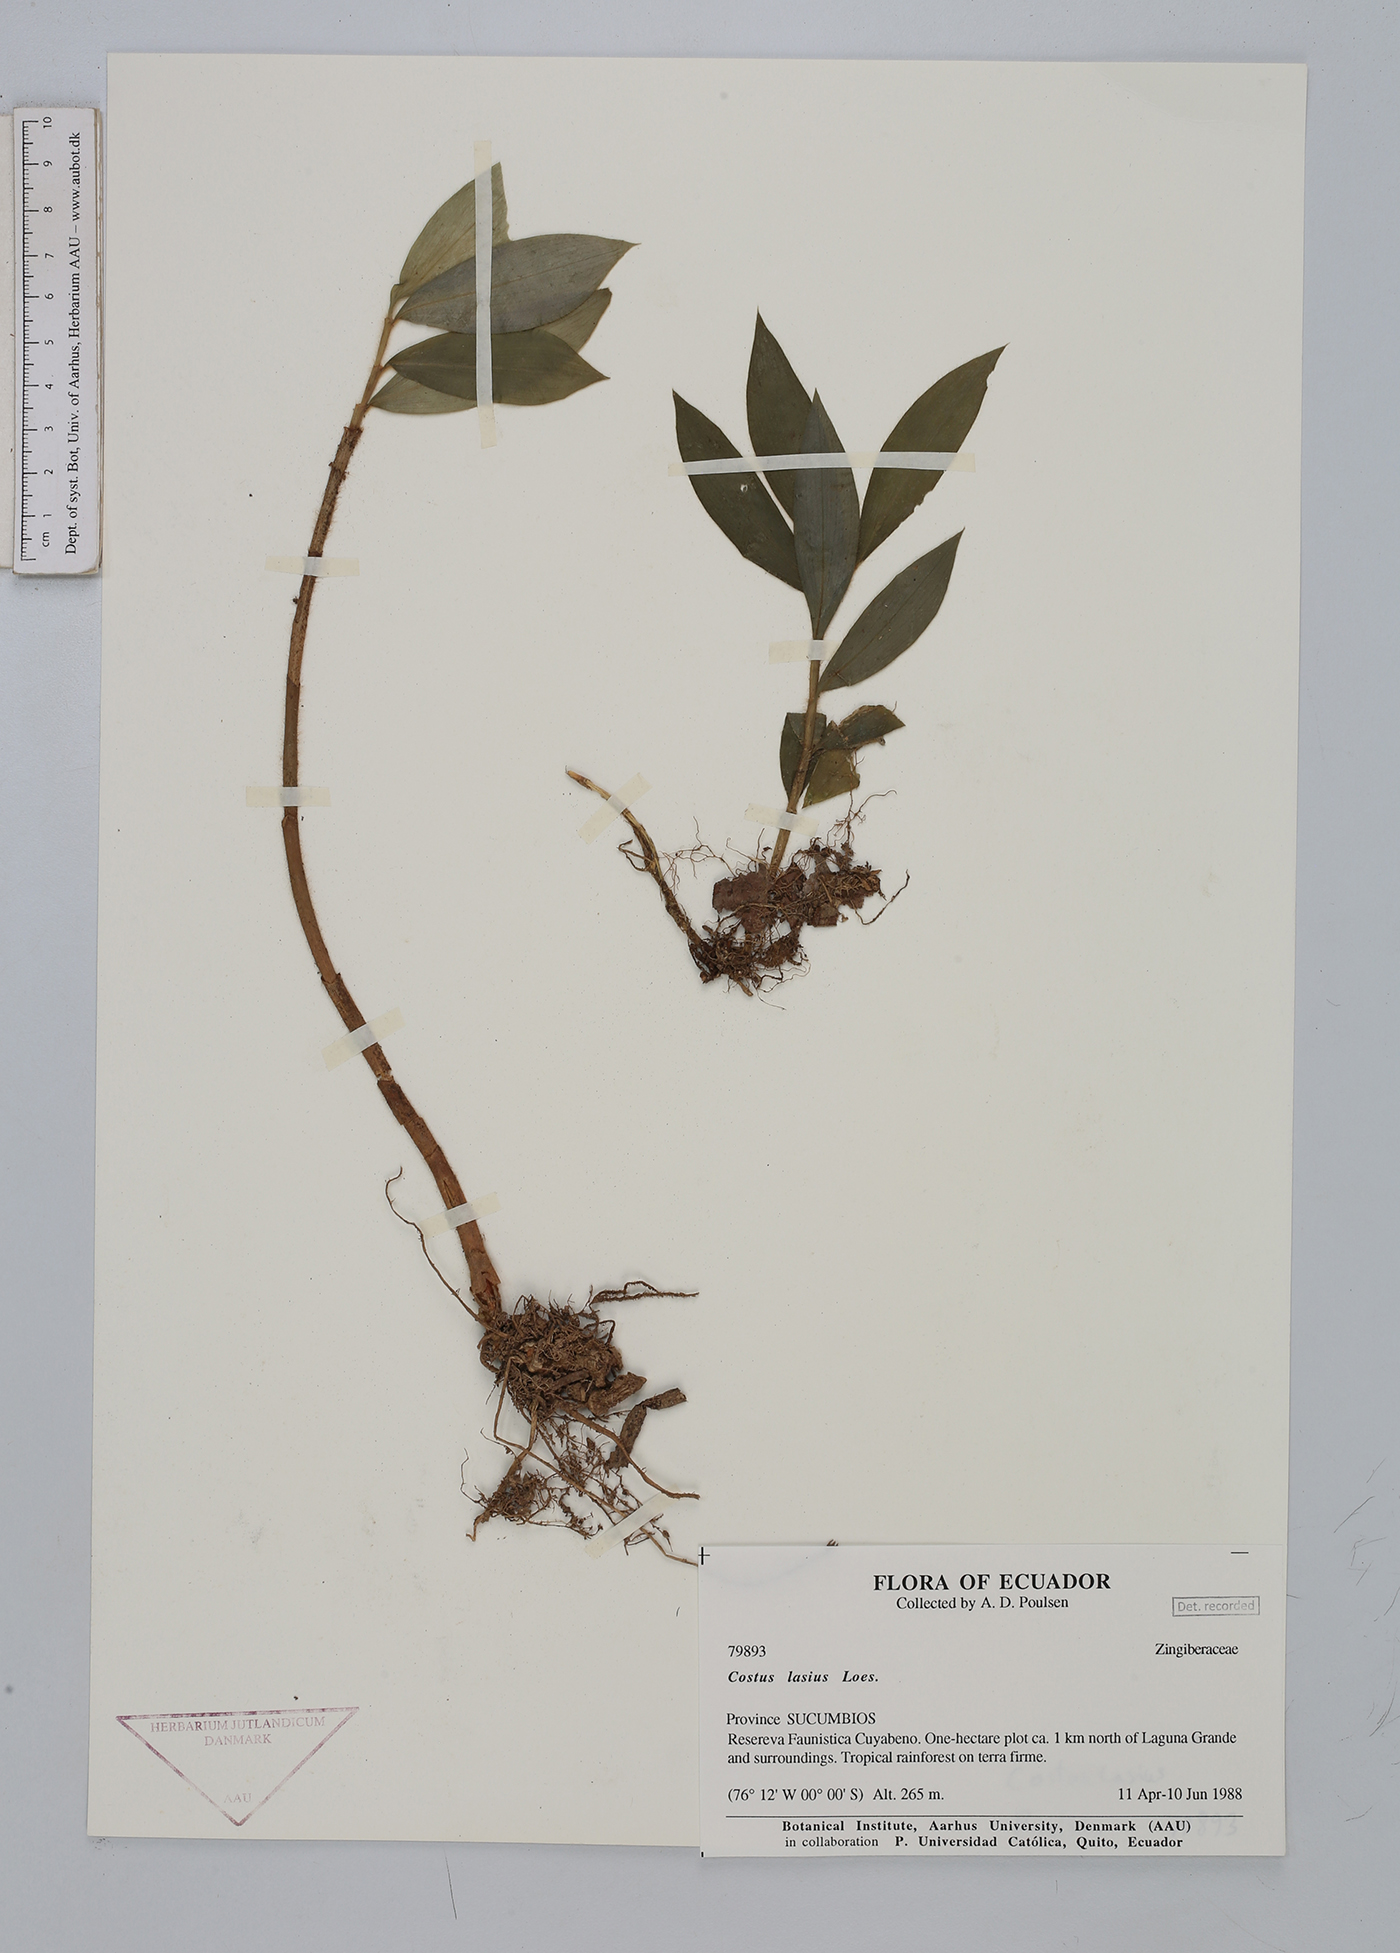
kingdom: Plantae
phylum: Tracheophyta
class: Liliopsida
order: Zingiberales
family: Costaceae
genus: Costus
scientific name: Costus lasius
